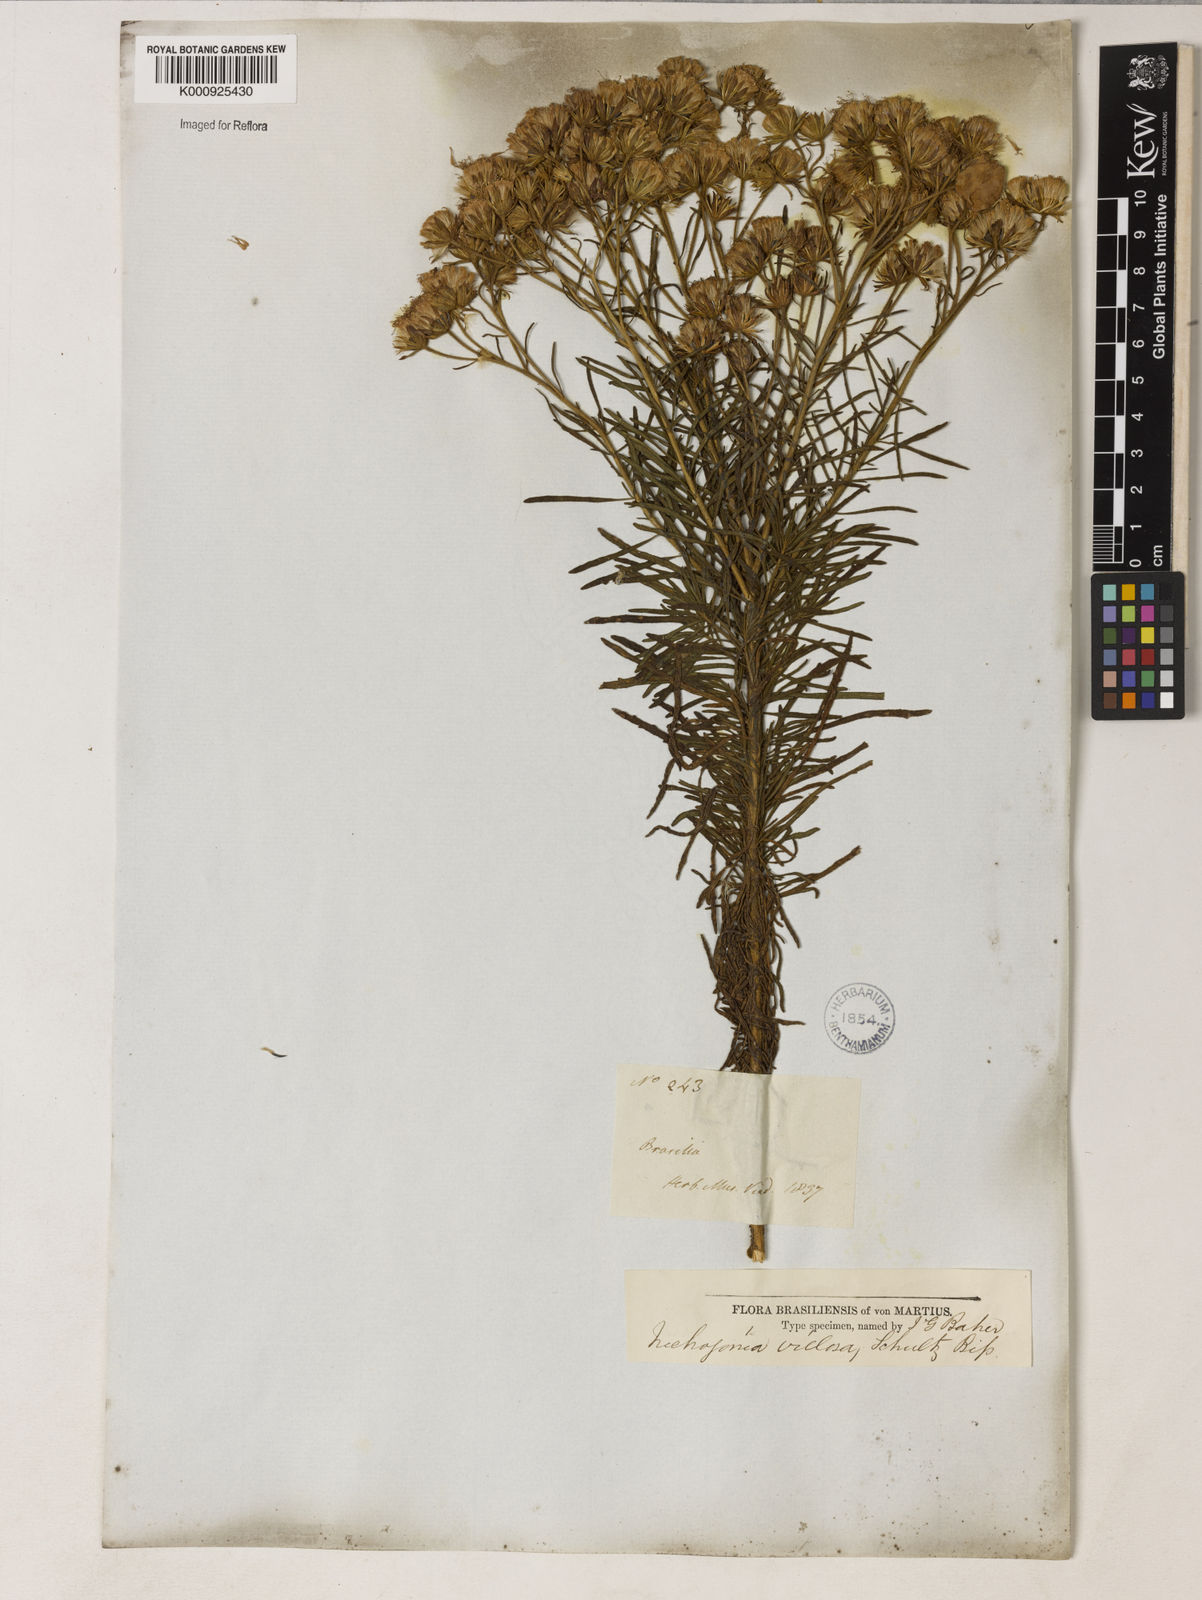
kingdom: Plantae
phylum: Tracheophyta
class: Magnoliopsida
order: Asterales
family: Asteraceae
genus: Trichogonia
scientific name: Trichogonia villosa
